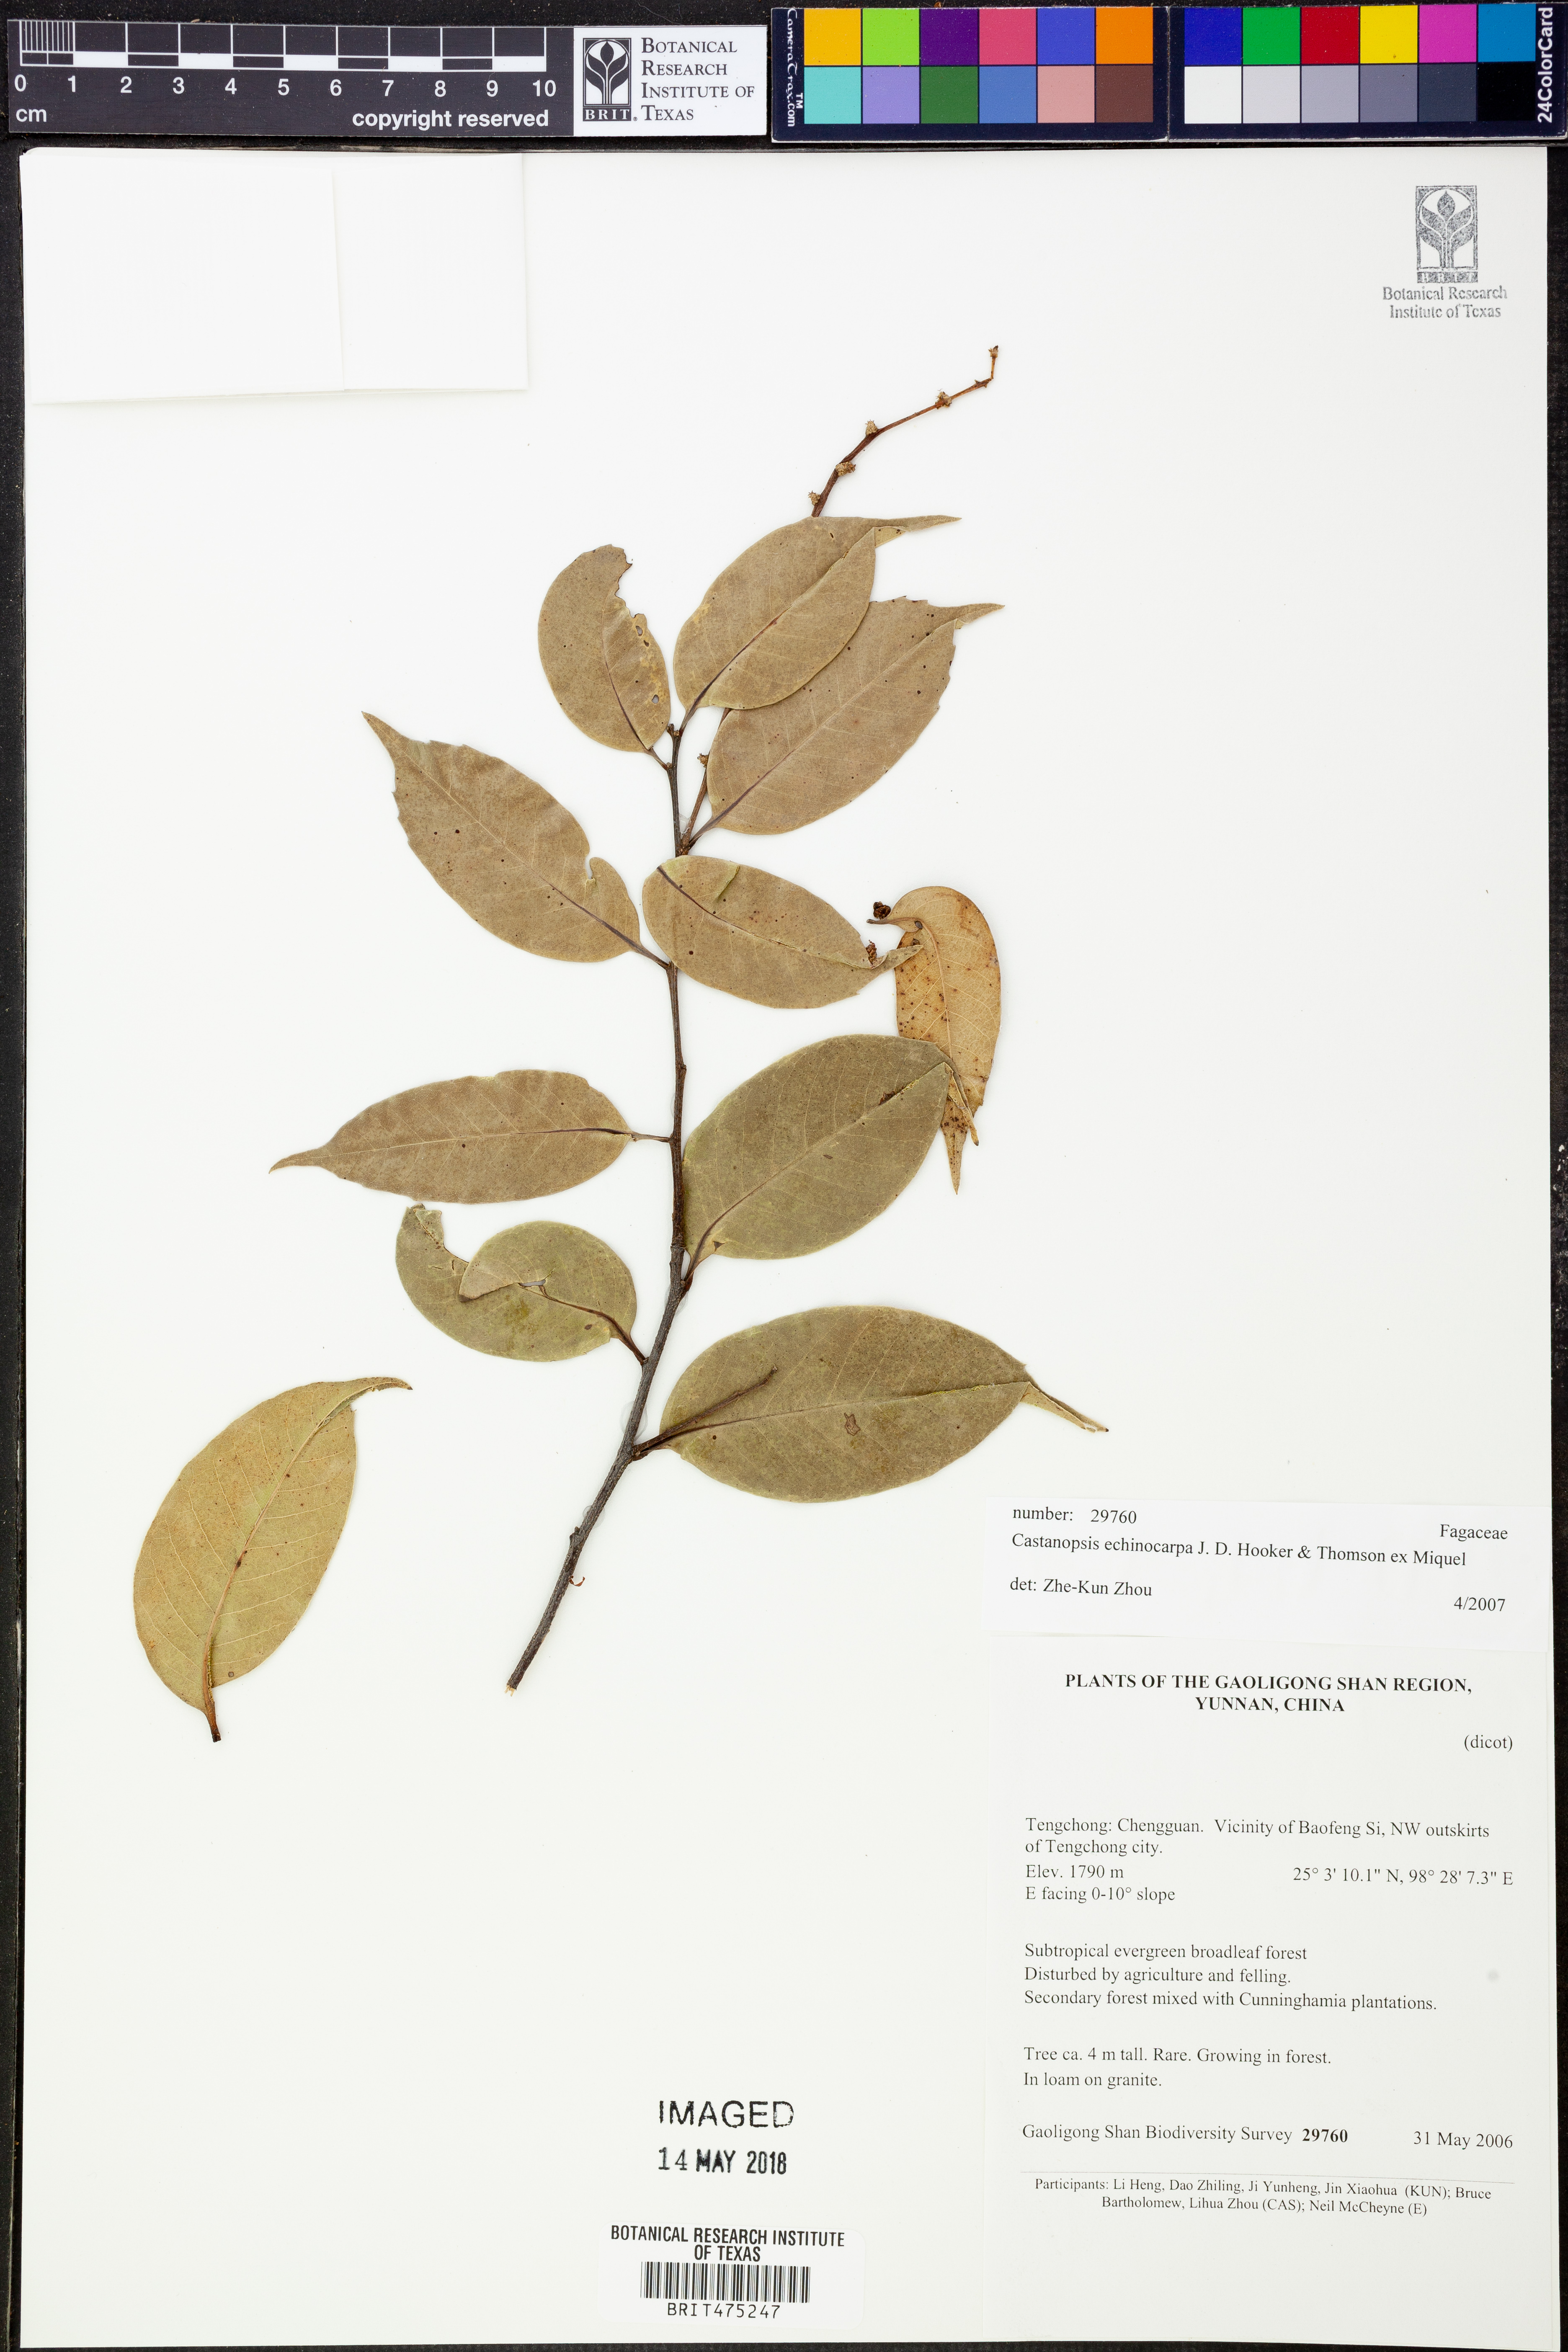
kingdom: Plantae
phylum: Tracheophyta
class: Magnoliopsida
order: Fagales
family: Fagaceae
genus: Castanopsis
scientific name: Castanopsis echinocarpa
